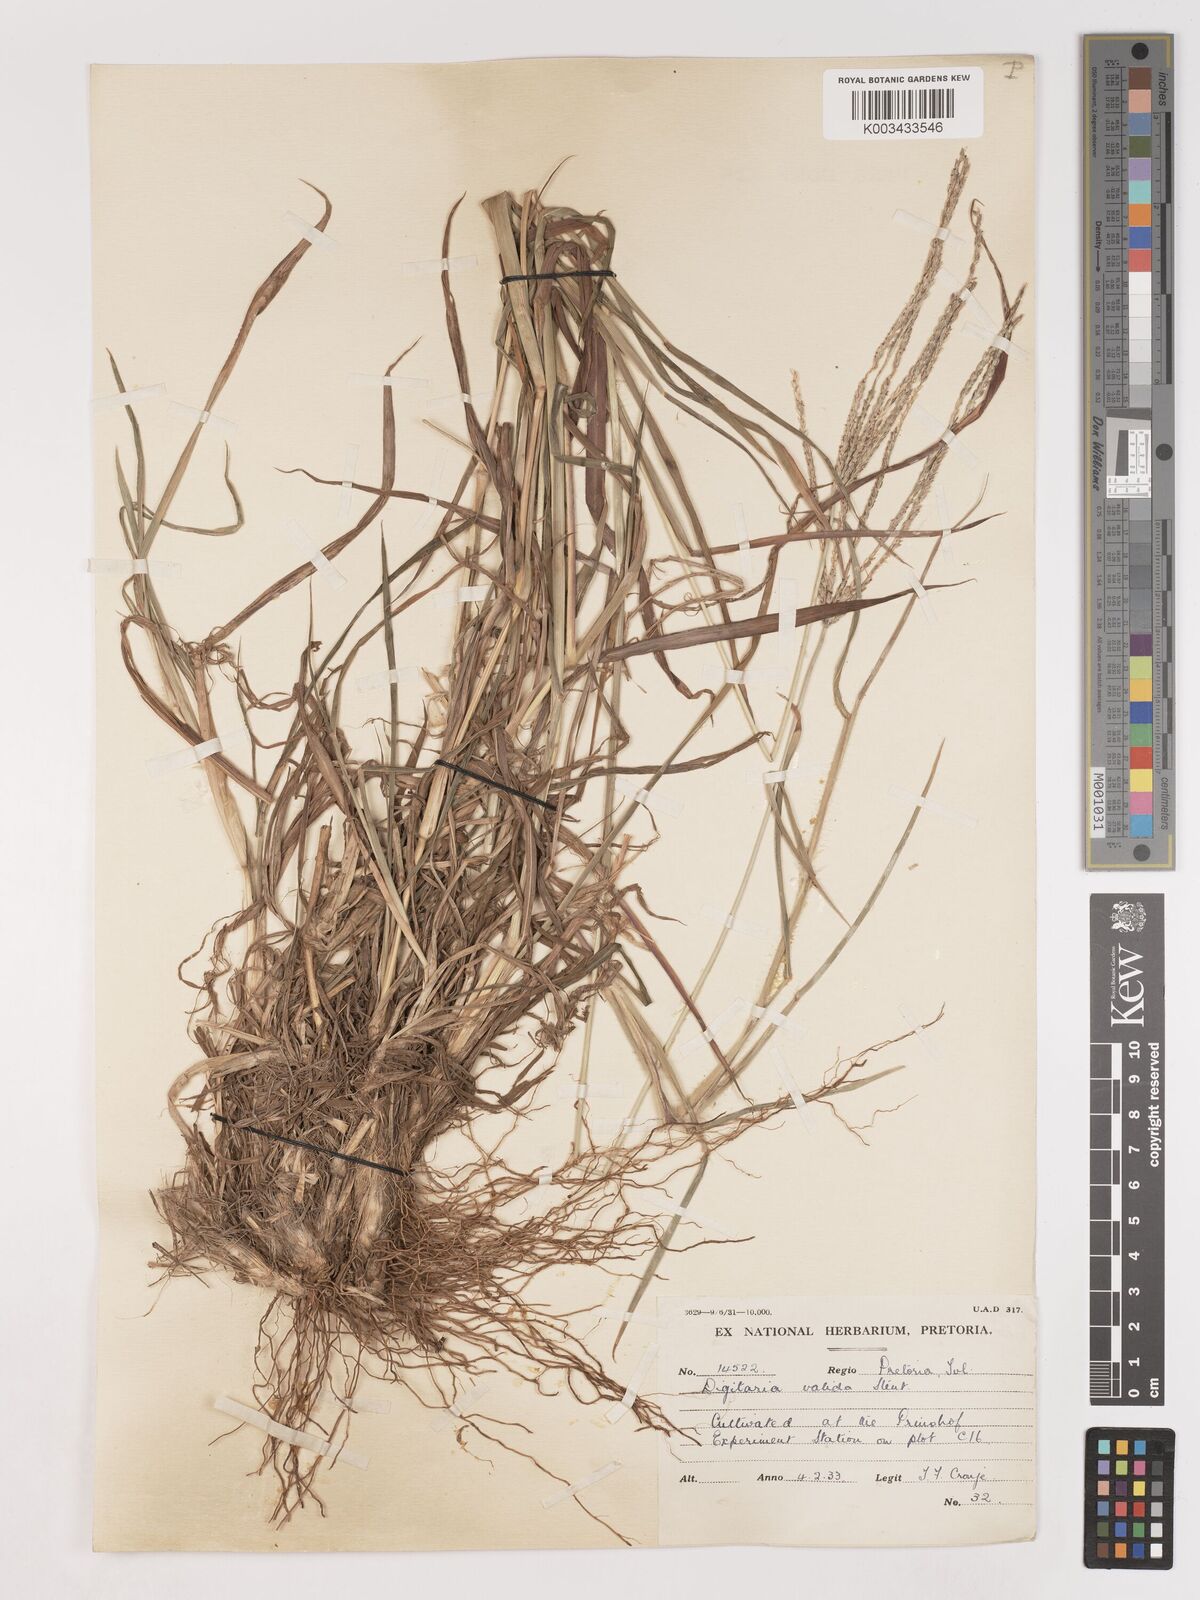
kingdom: Plantae
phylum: Tracheophyta
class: Liliopsida
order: Poales
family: Poaceae
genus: Digitaria
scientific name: Digitaria eriantha
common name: Digitgrass
